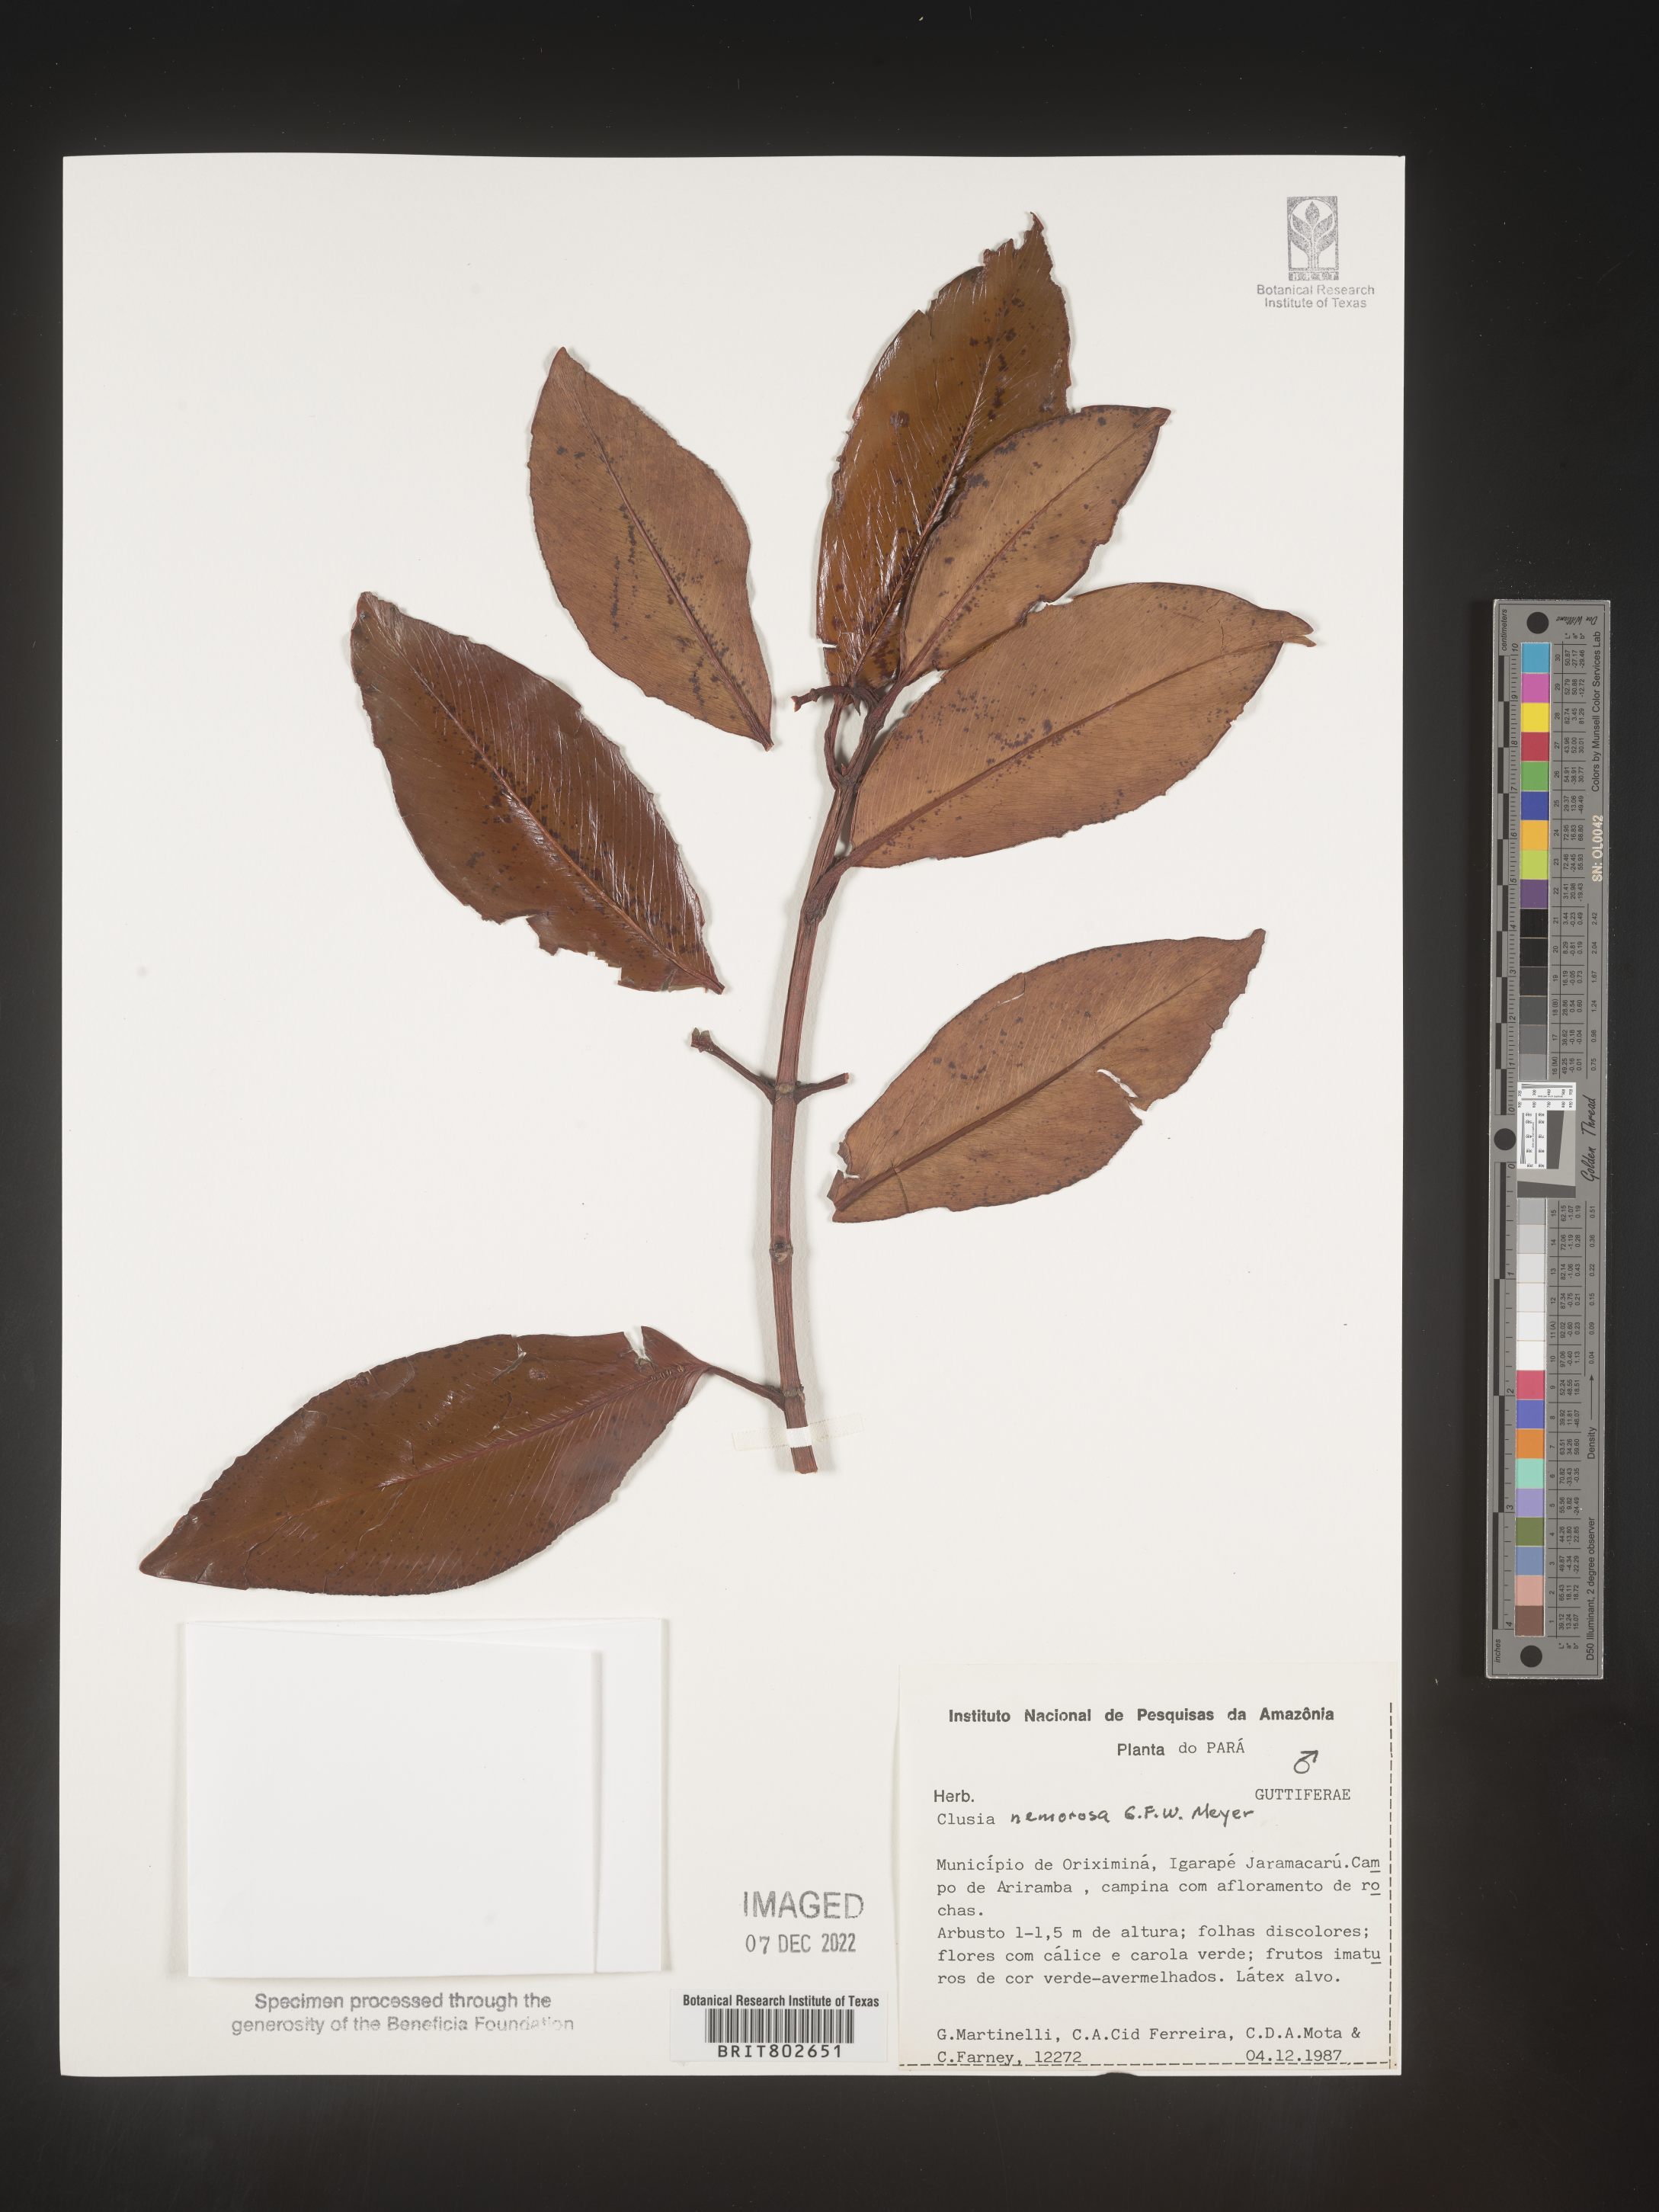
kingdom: Plantae
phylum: Tracheophyta
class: Magnoliopsida
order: Malpighiales
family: Clusiaceae
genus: Clusia
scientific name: Clusia nemorosa
